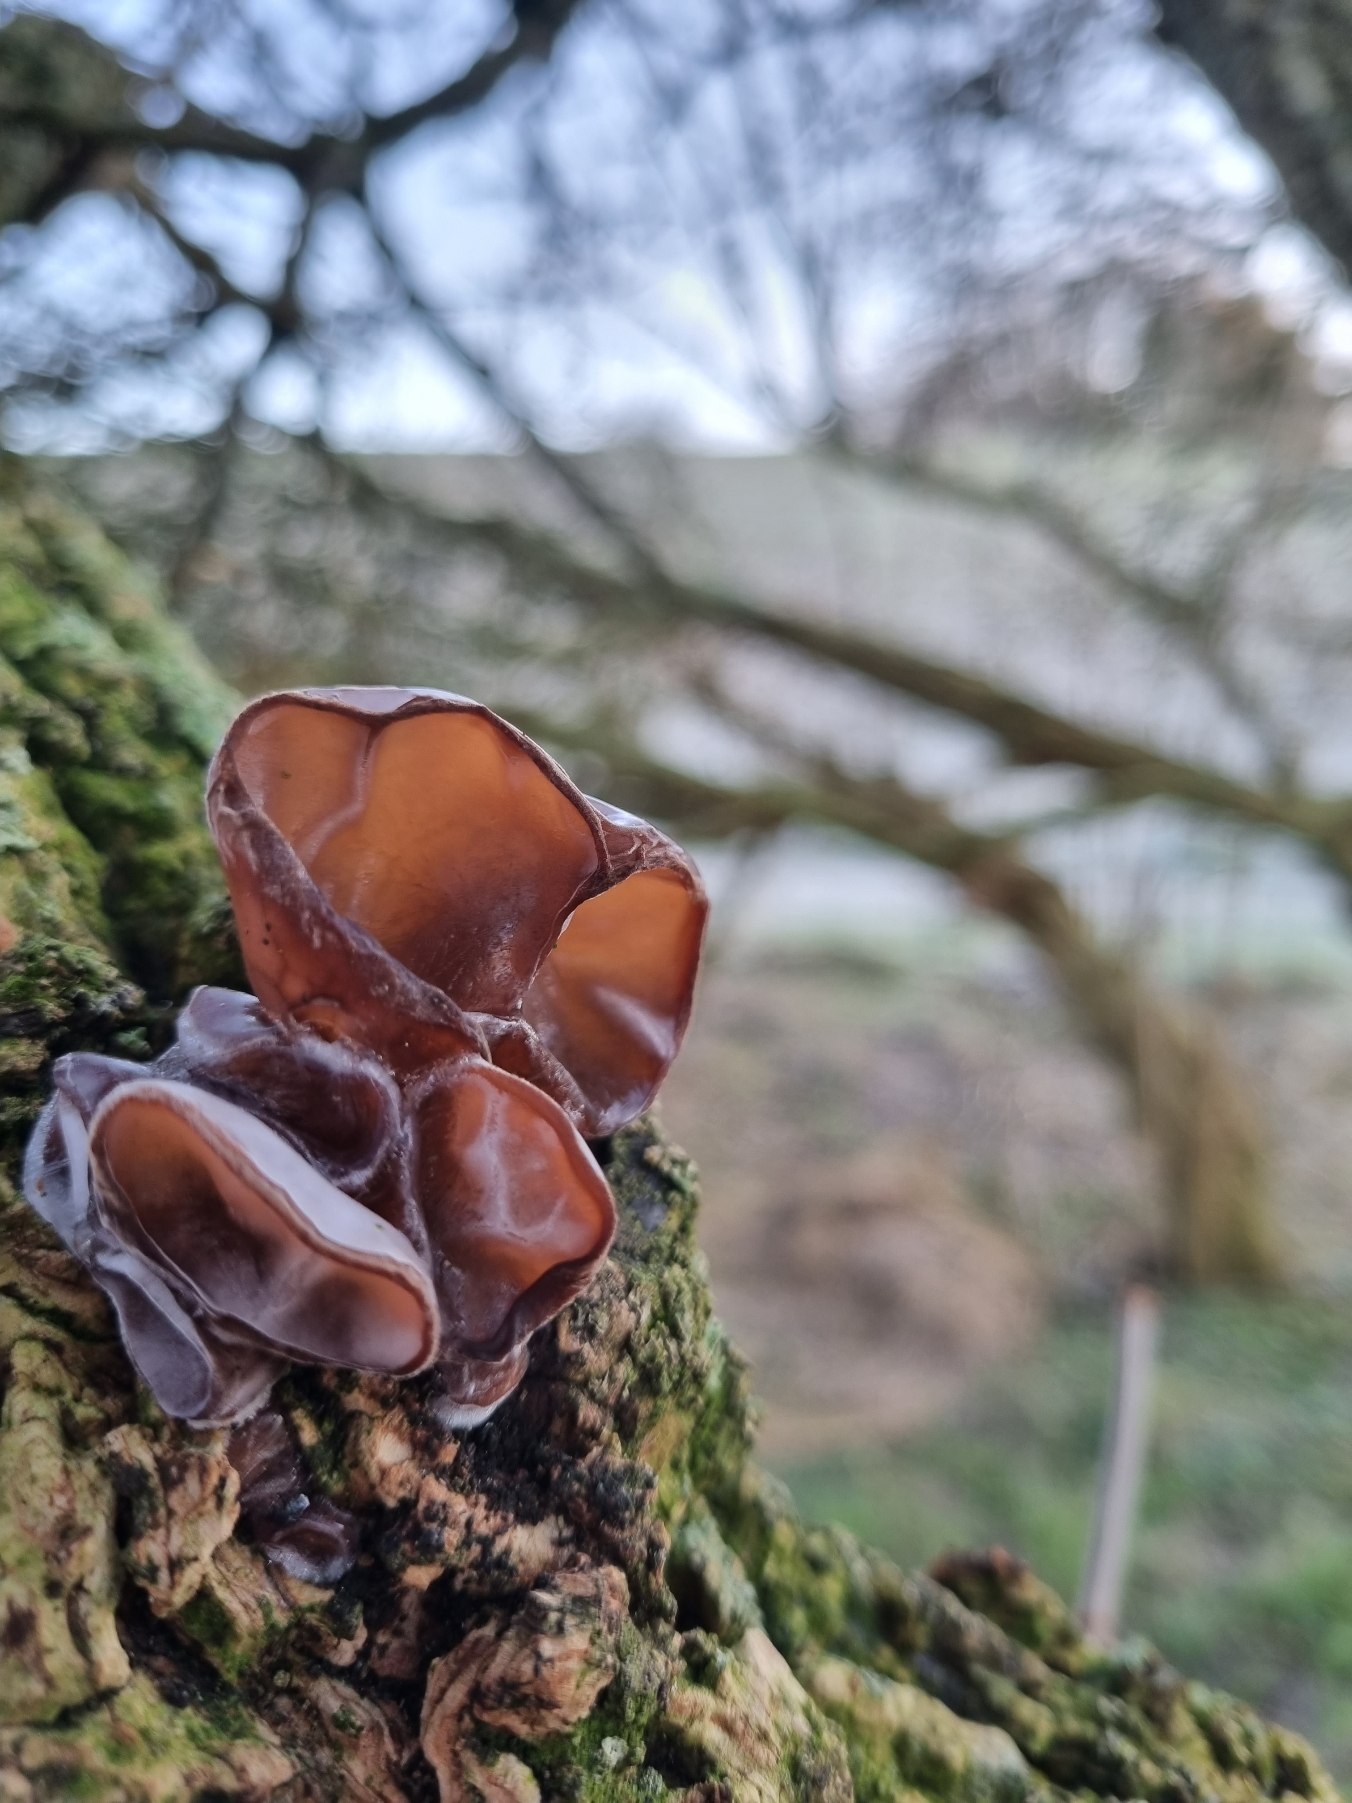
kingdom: Fungi
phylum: Basidiomycota
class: Agaricomycetes
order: Auriculariales
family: Auriculariaceae
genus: Auricularia
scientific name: Auricularia auricula-judae
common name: Almindelig judasøre
